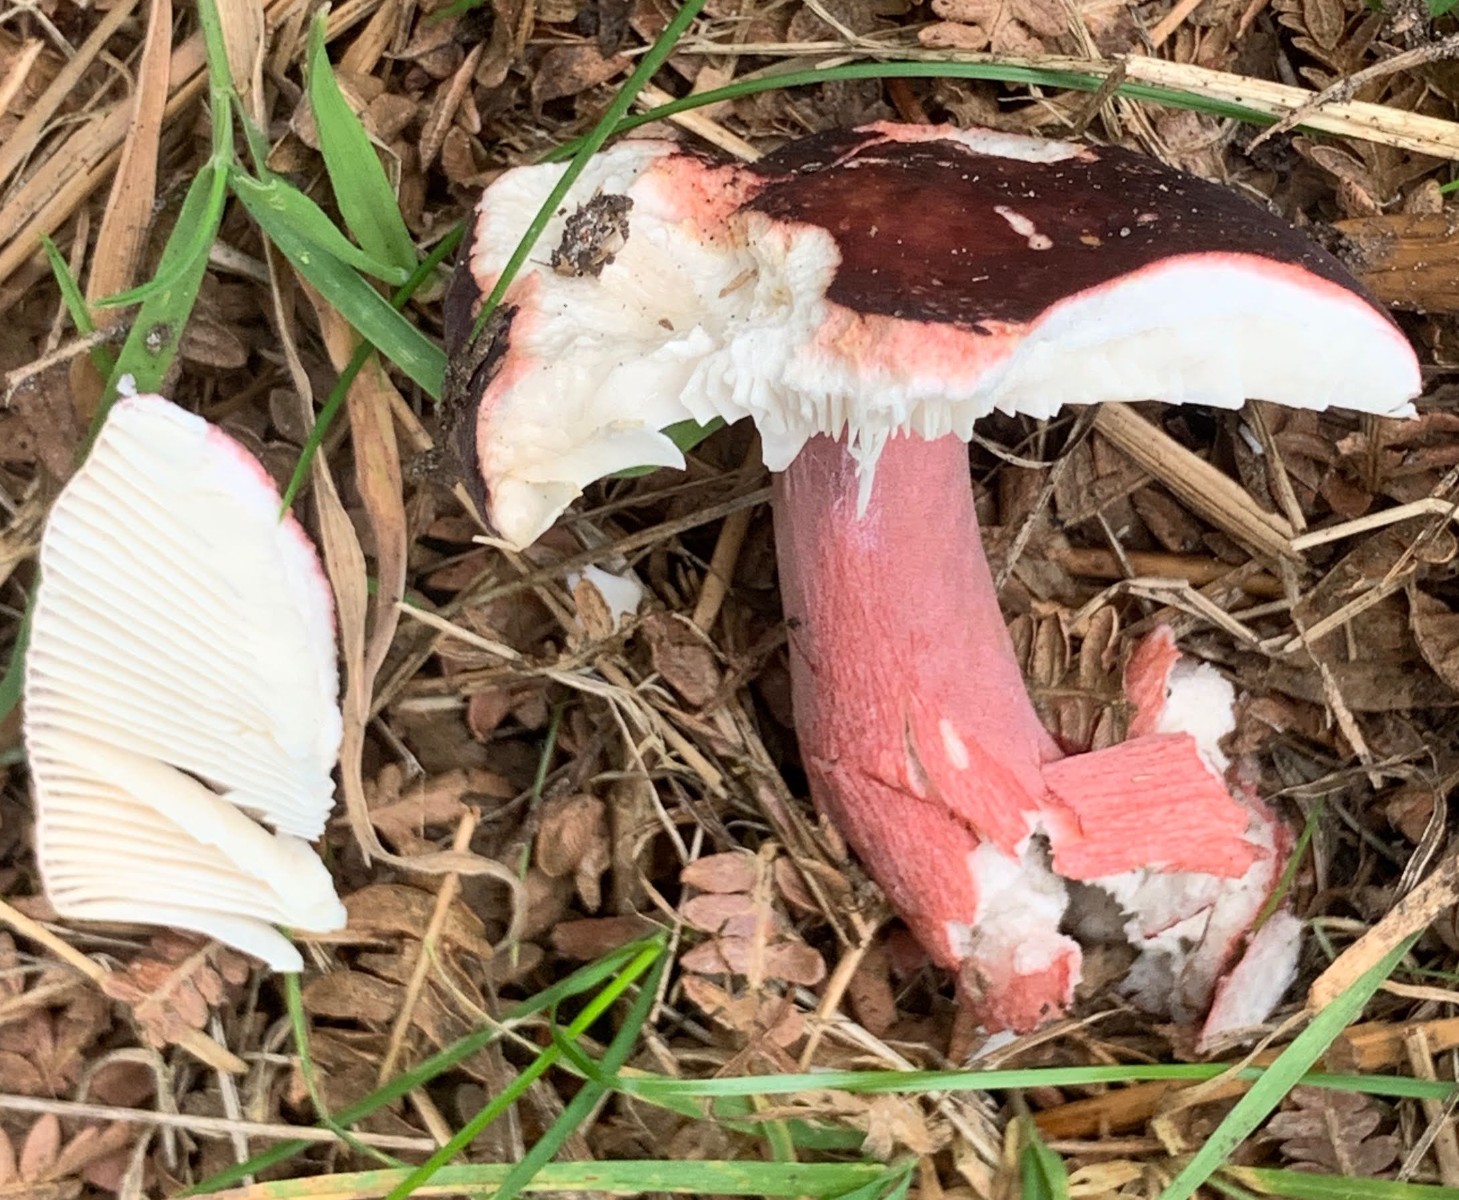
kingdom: Fungi
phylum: Basidiomycota
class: Agaricomycetes
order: Russulales
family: Russulaceae
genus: Russula
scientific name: Russula queletii
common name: Quélets skørhat
